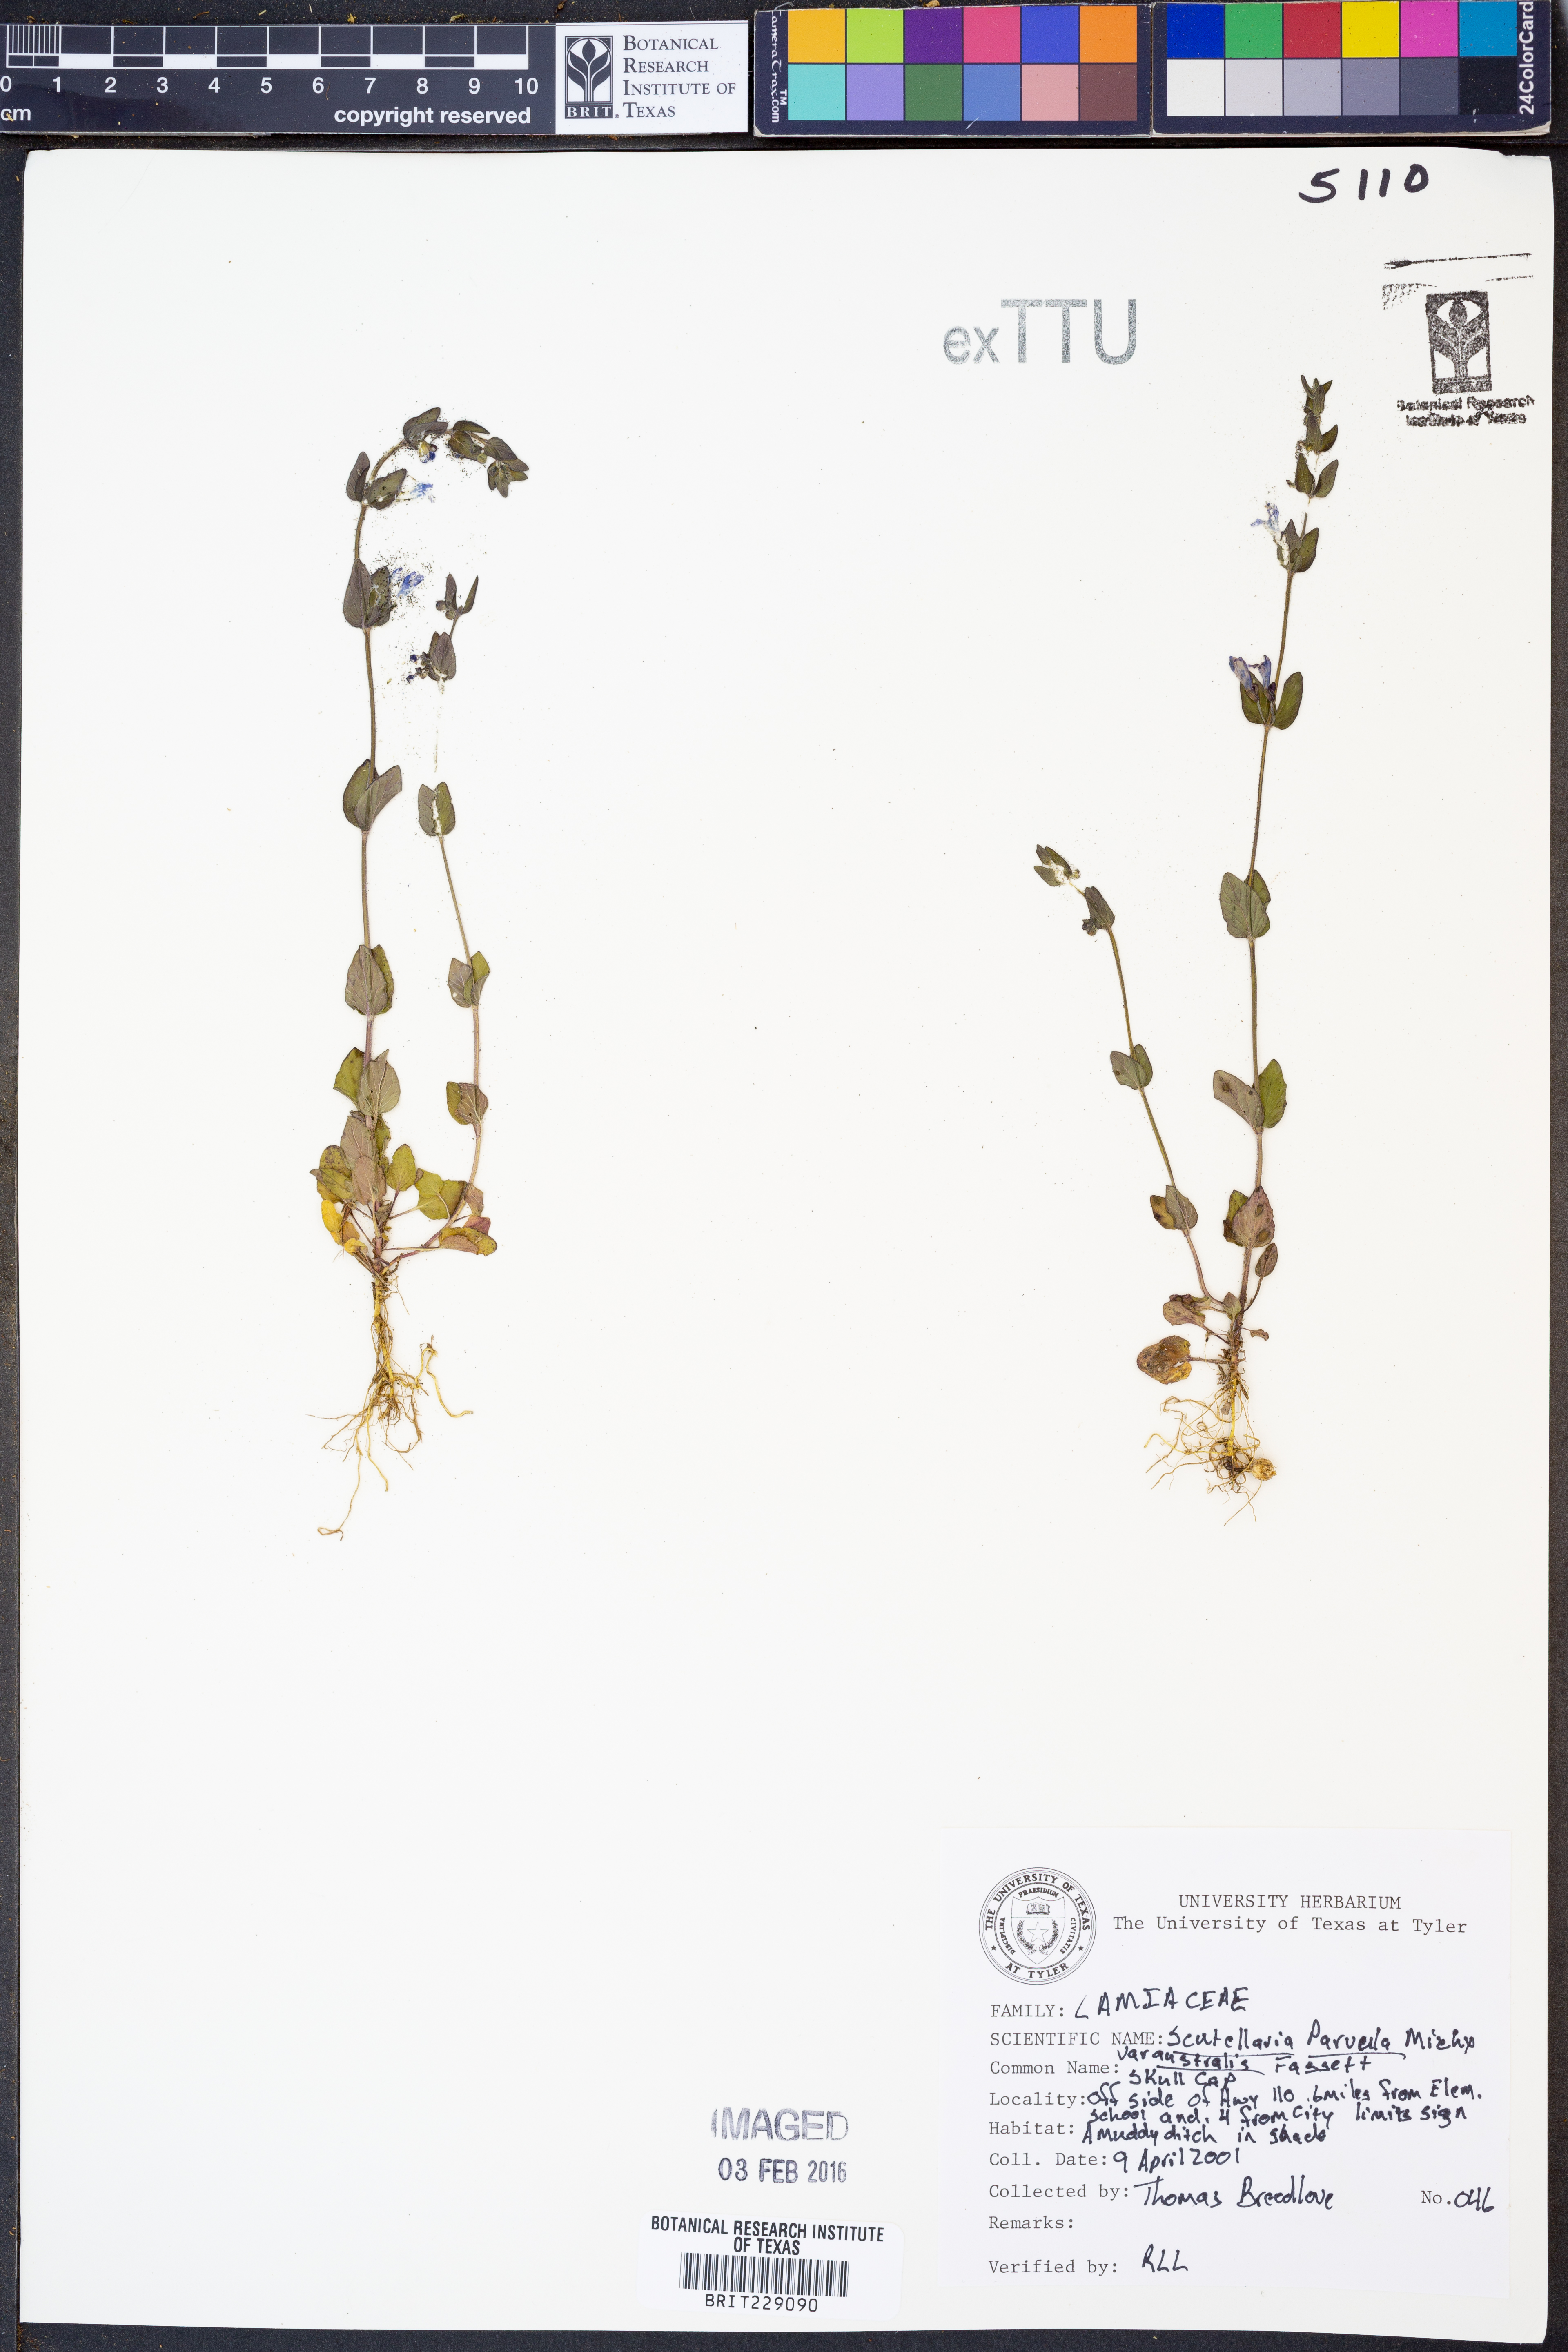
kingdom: Plantae
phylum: Tracheophyta
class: Magnoliopsida
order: Lamiales
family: Lamiaceae
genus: Scutellaria
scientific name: Scutellaria parvula
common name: Little scullcap
